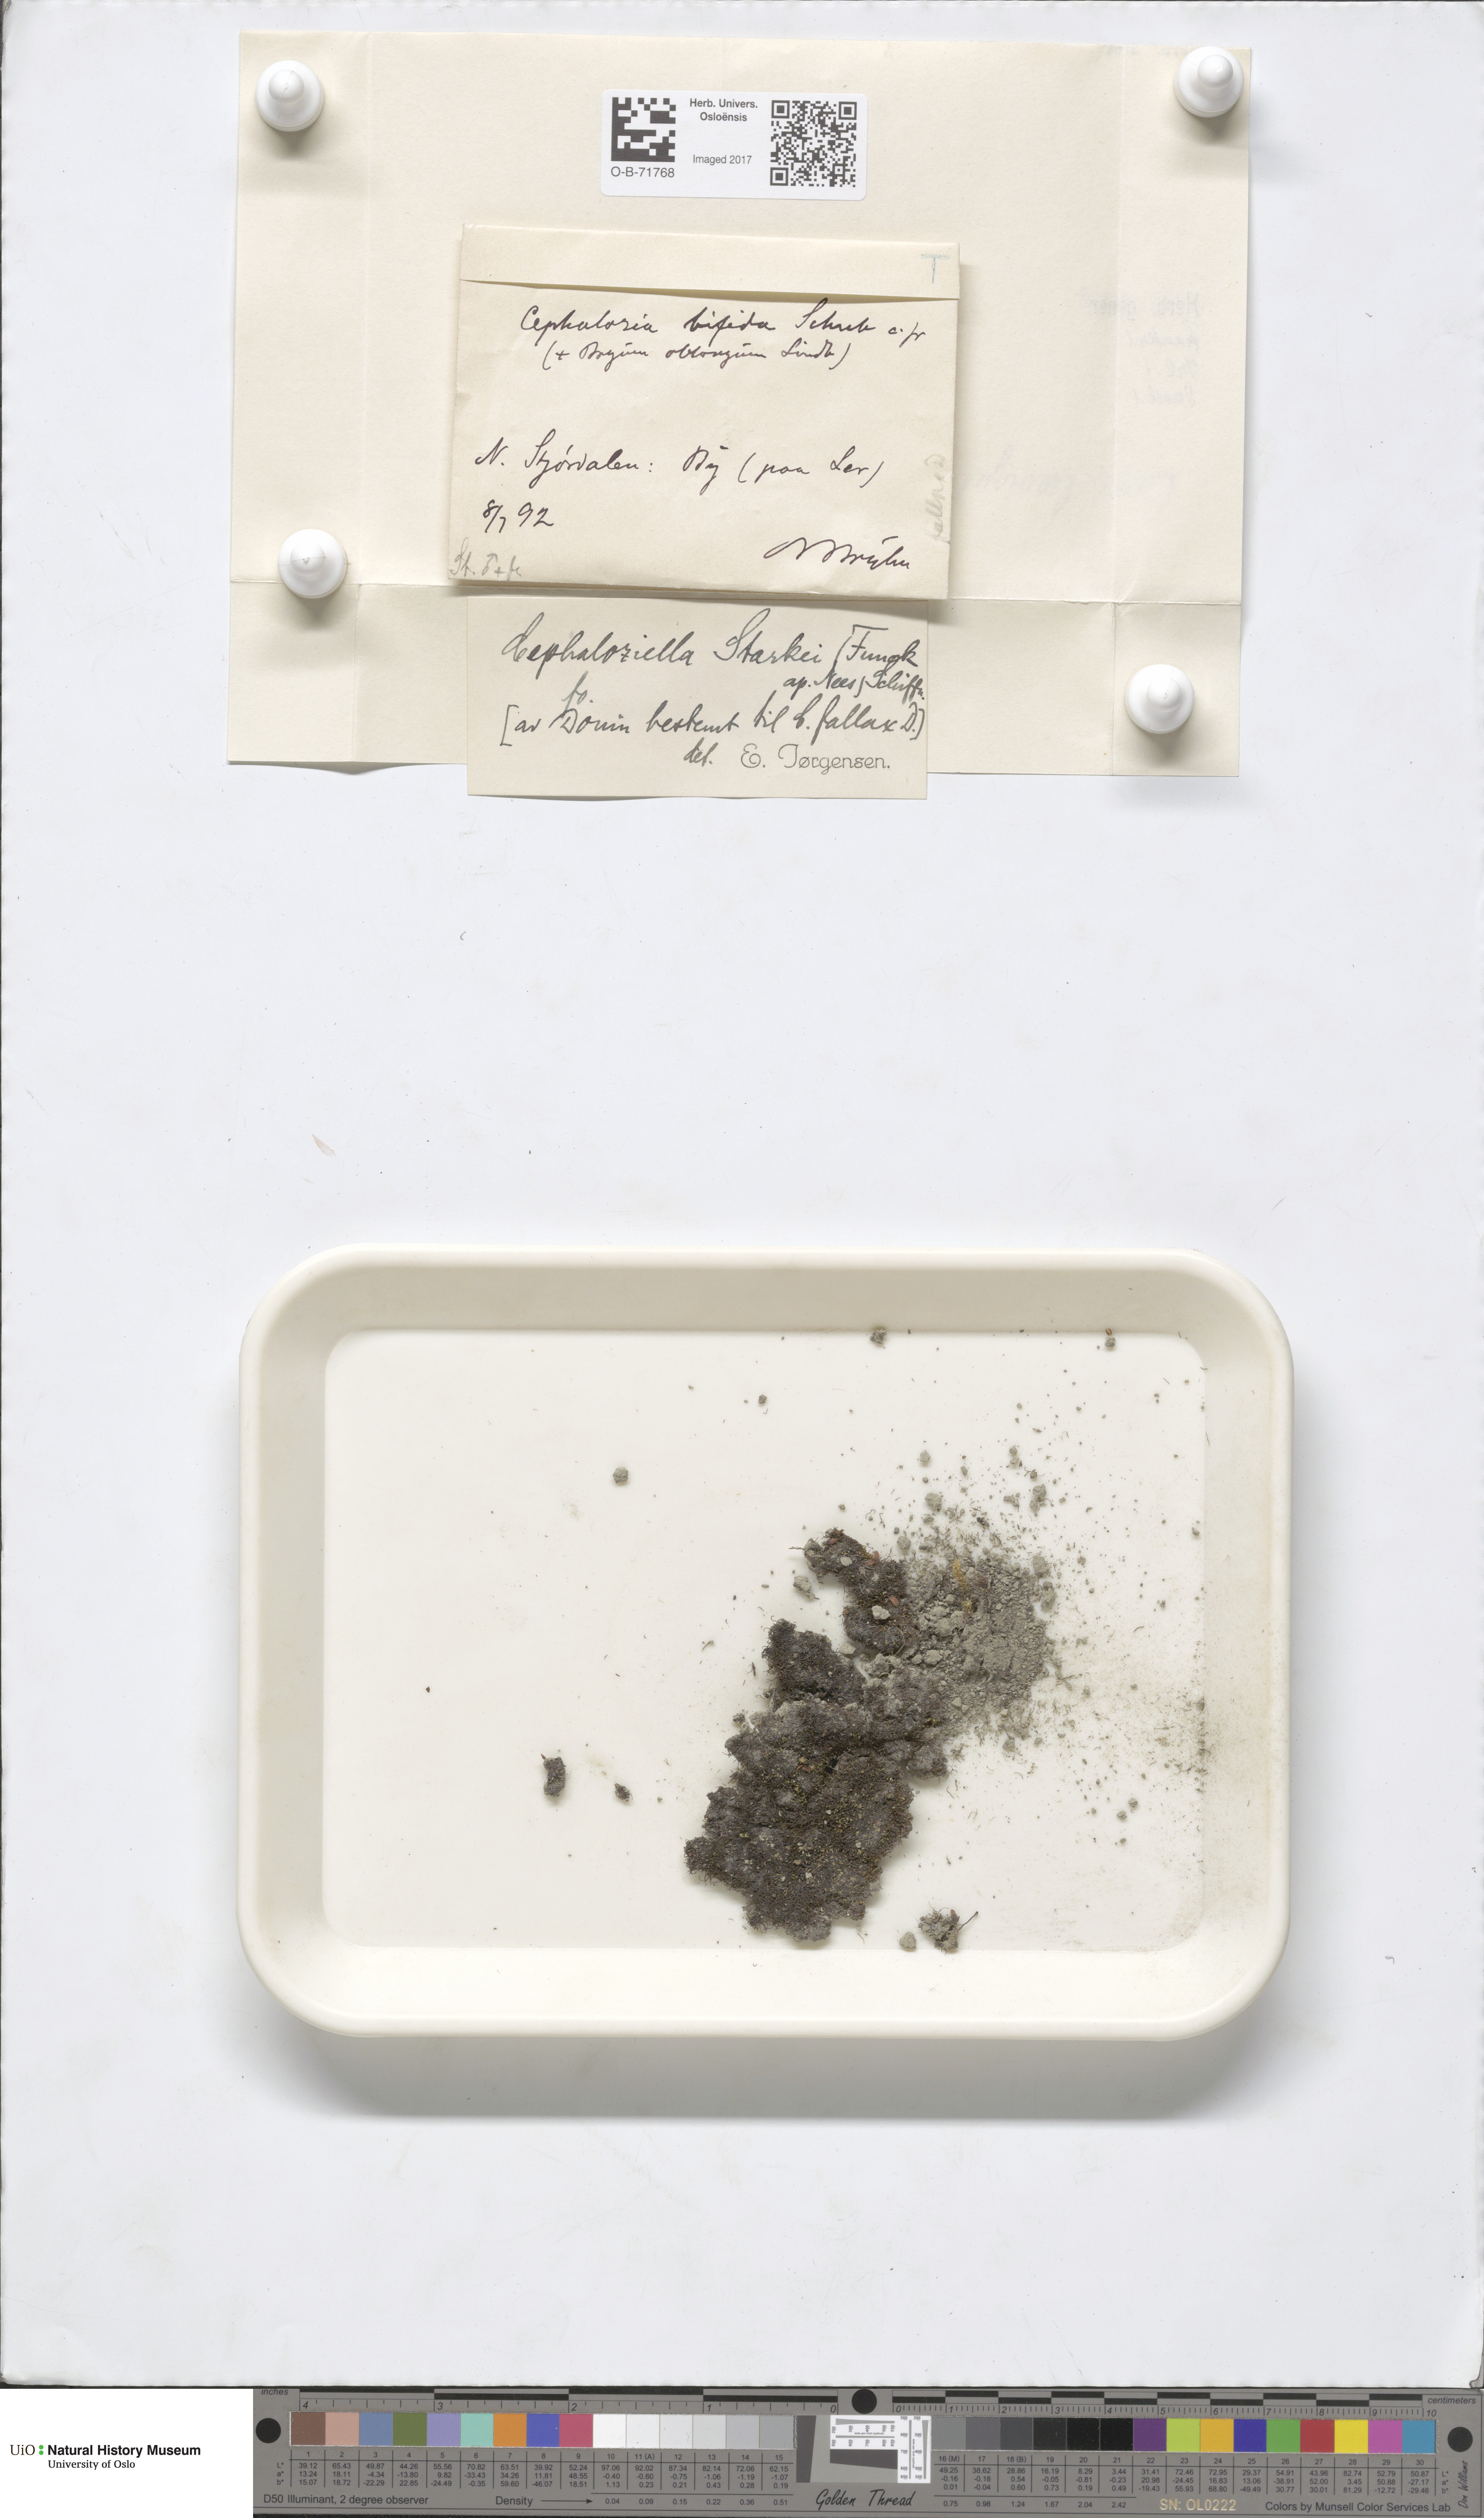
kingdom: Plantae
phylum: Marchantiophyta
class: Jungermanniopsida
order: Jungermanniales
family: Cephaloziellaceae
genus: Cephaloziella
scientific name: Cephaloziella varians
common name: Arctic threadwort
